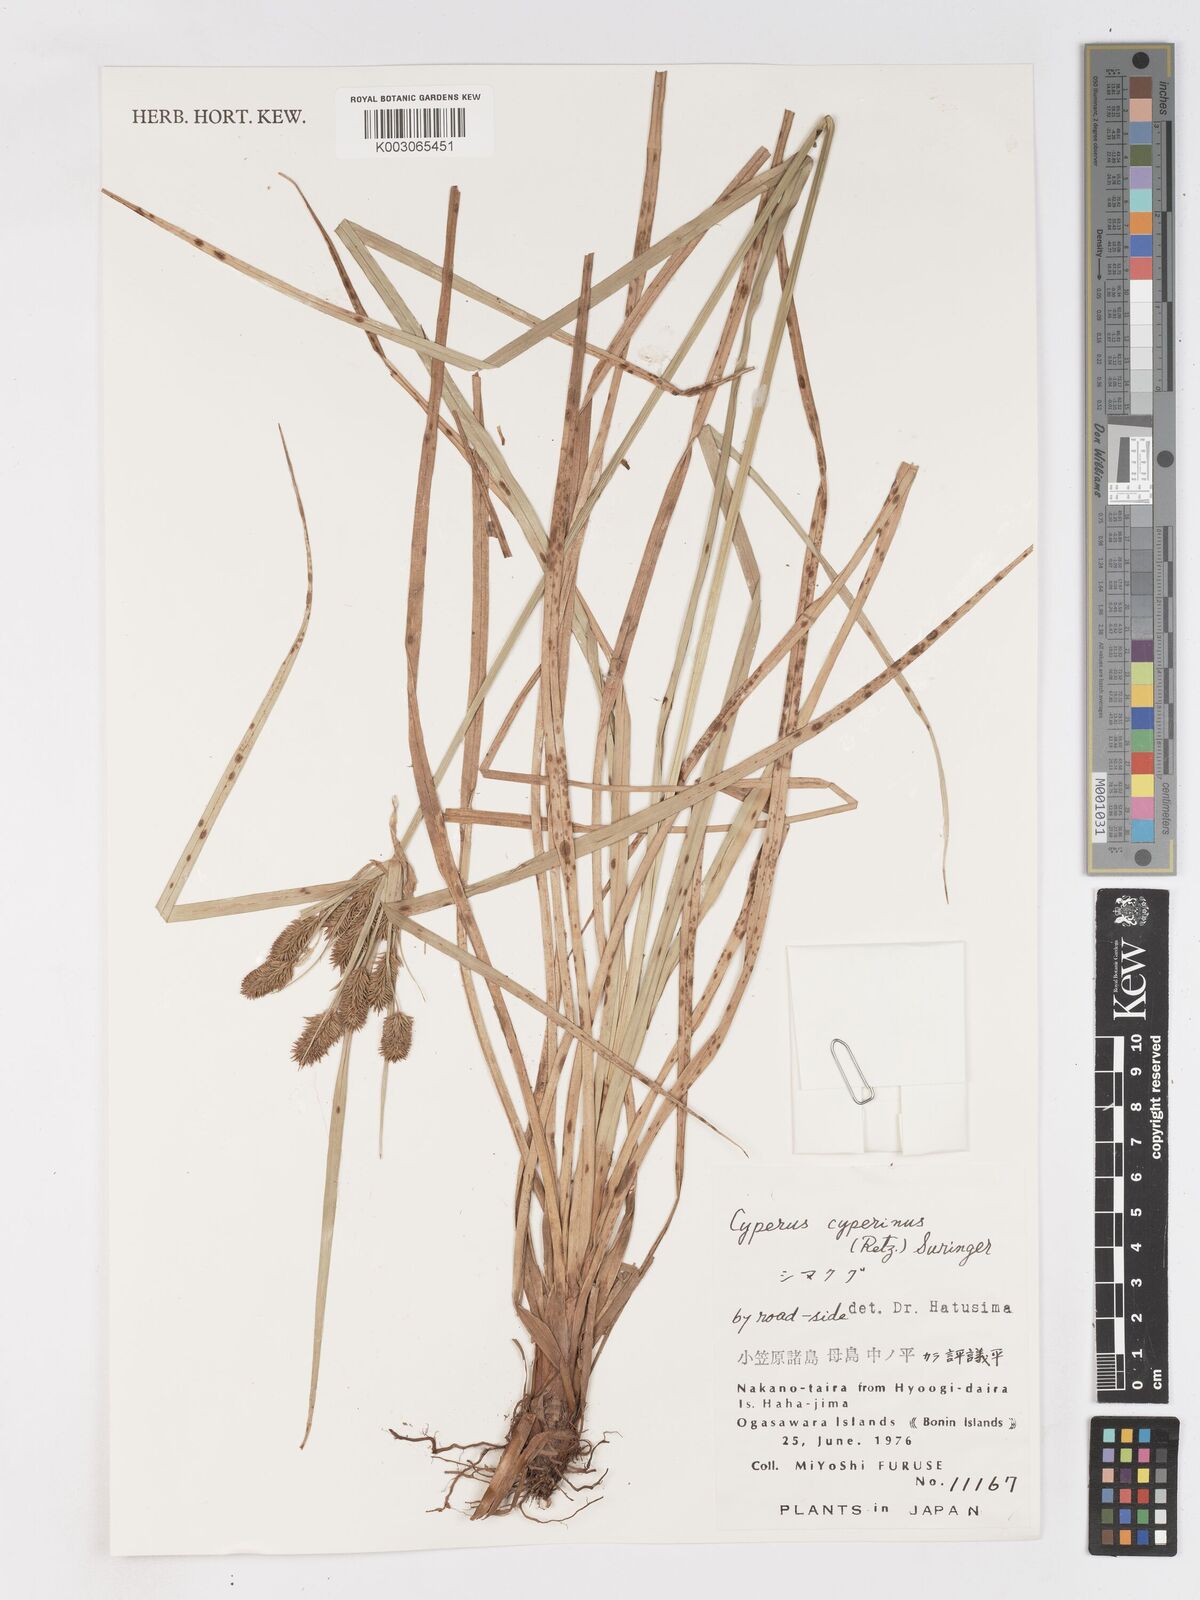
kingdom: Plantae
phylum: Tracheophyta
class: Liliopsida
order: Poales
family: Cyperaceae
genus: Cyperus
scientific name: Cyperus cyperinus
